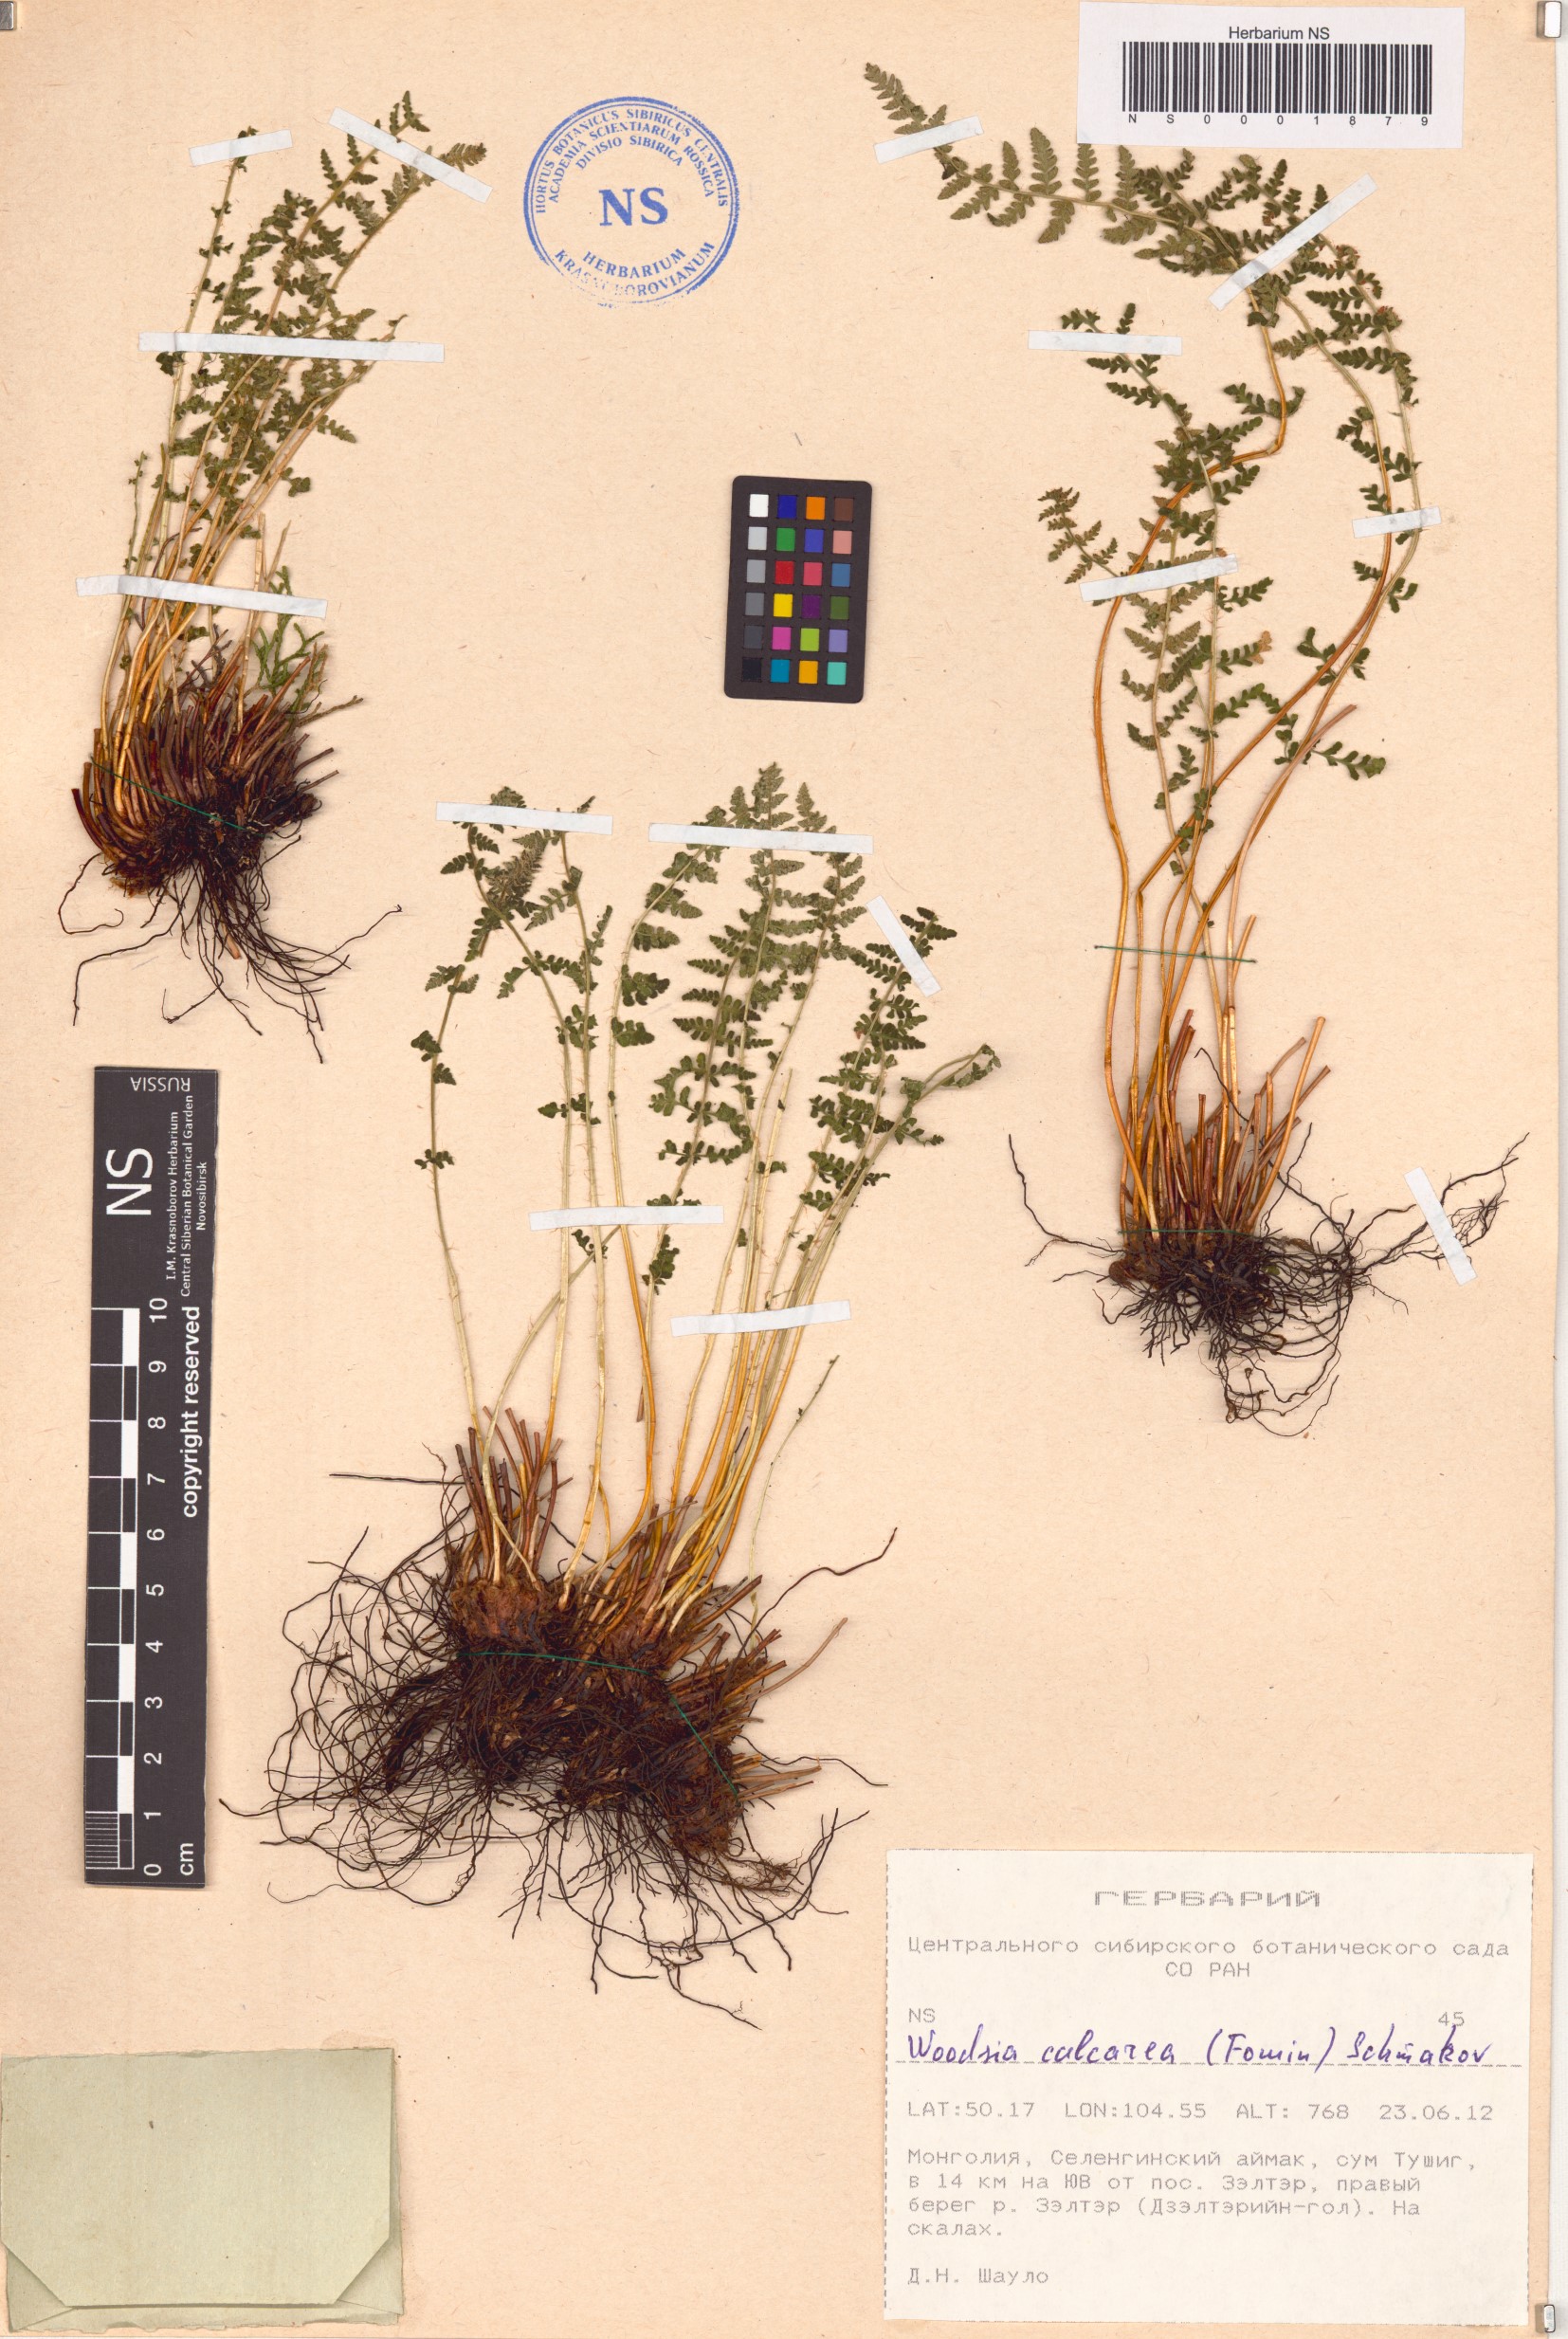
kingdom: Plantae
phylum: Tracheophyta
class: Polypodiopsida
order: Polypodiales
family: Woodsiaceae
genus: Woodsia
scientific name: Woodsia calcarea
